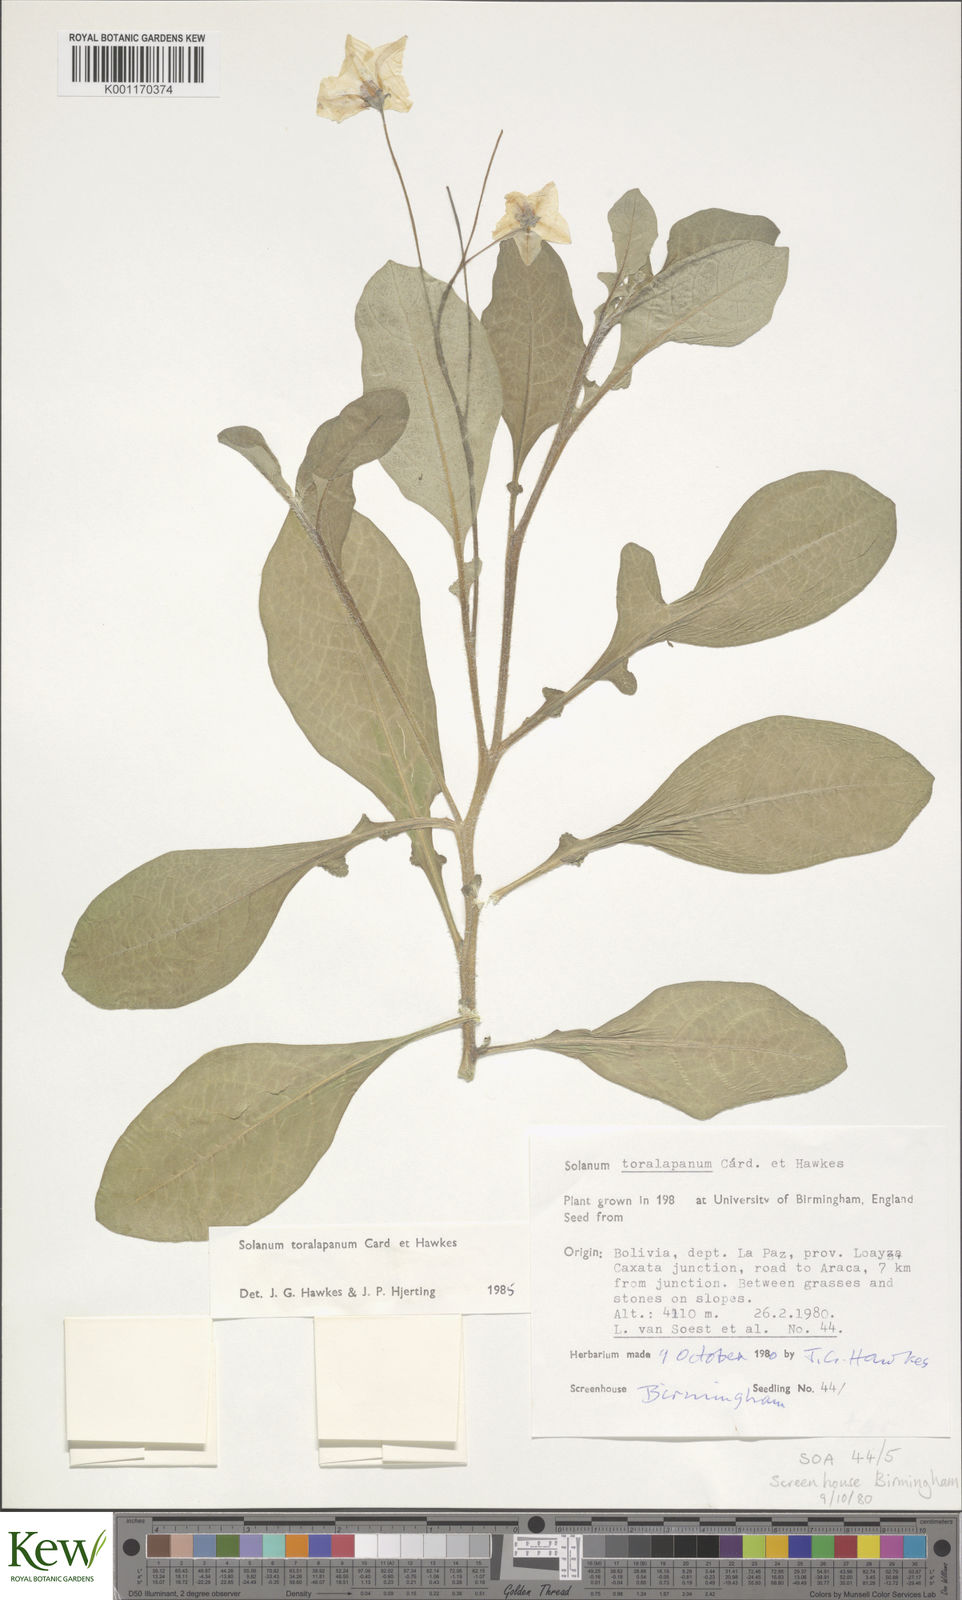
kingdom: Plantae
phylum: Tracheophyta
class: Magnoliopsida
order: Solanales
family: Solanaceae
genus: Solanum
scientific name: Solanum
